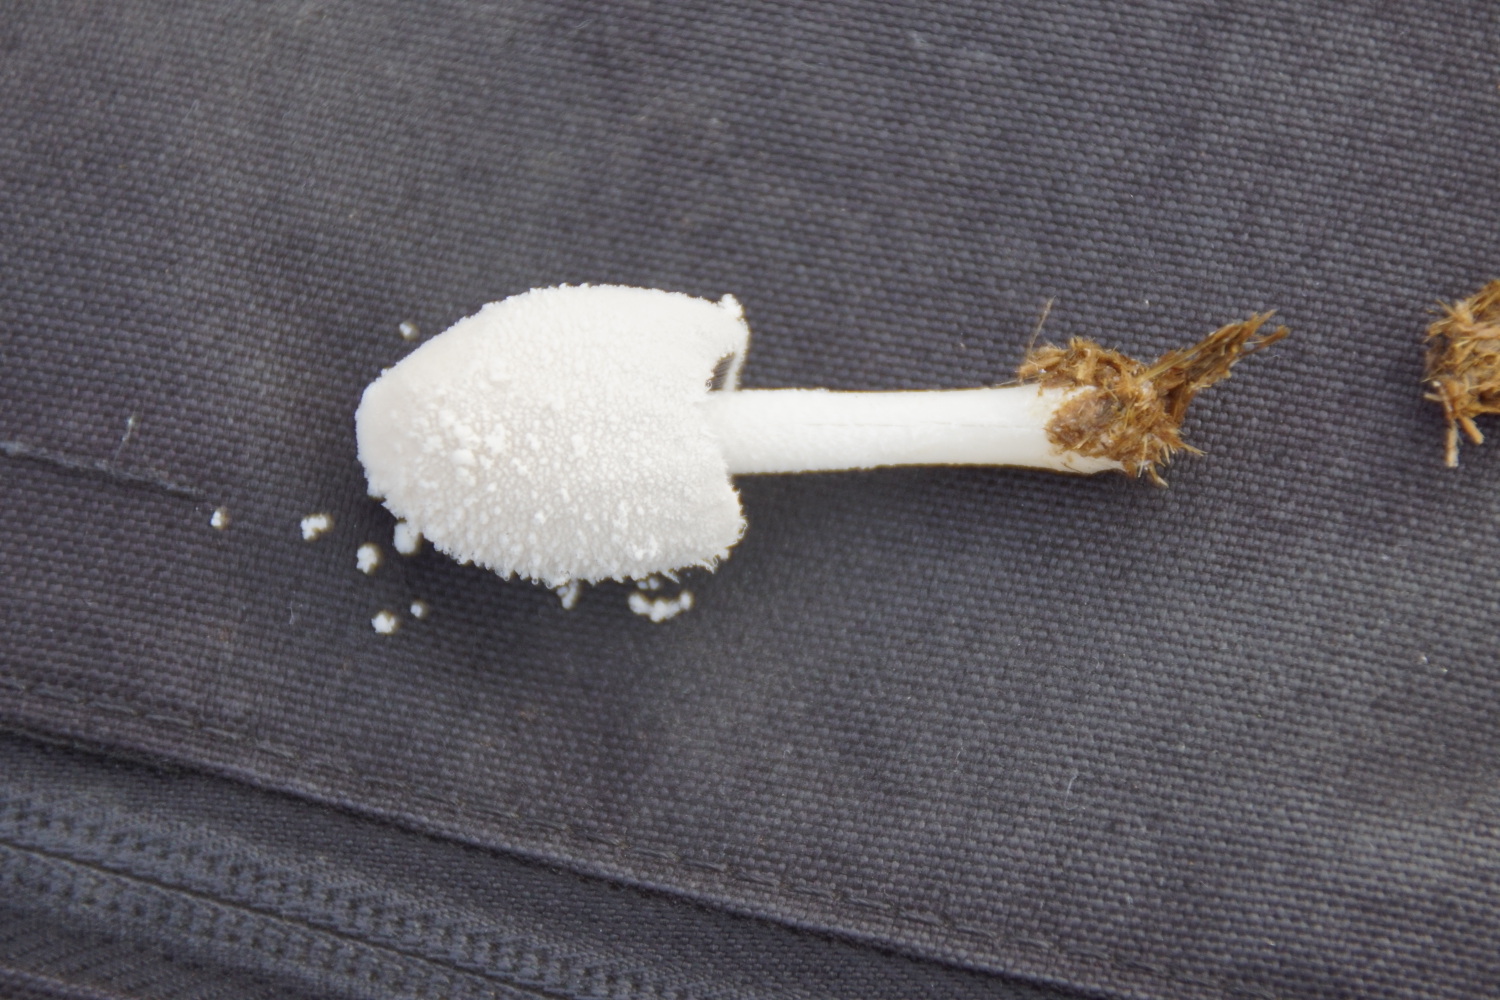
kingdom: Fungi
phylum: Basidiomycota
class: Agaricomycetes
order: Agaricales
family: Psathyrellaceae
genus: Coprinopsis
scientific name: Coprinopsis nivea
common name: snehvid blækhat
